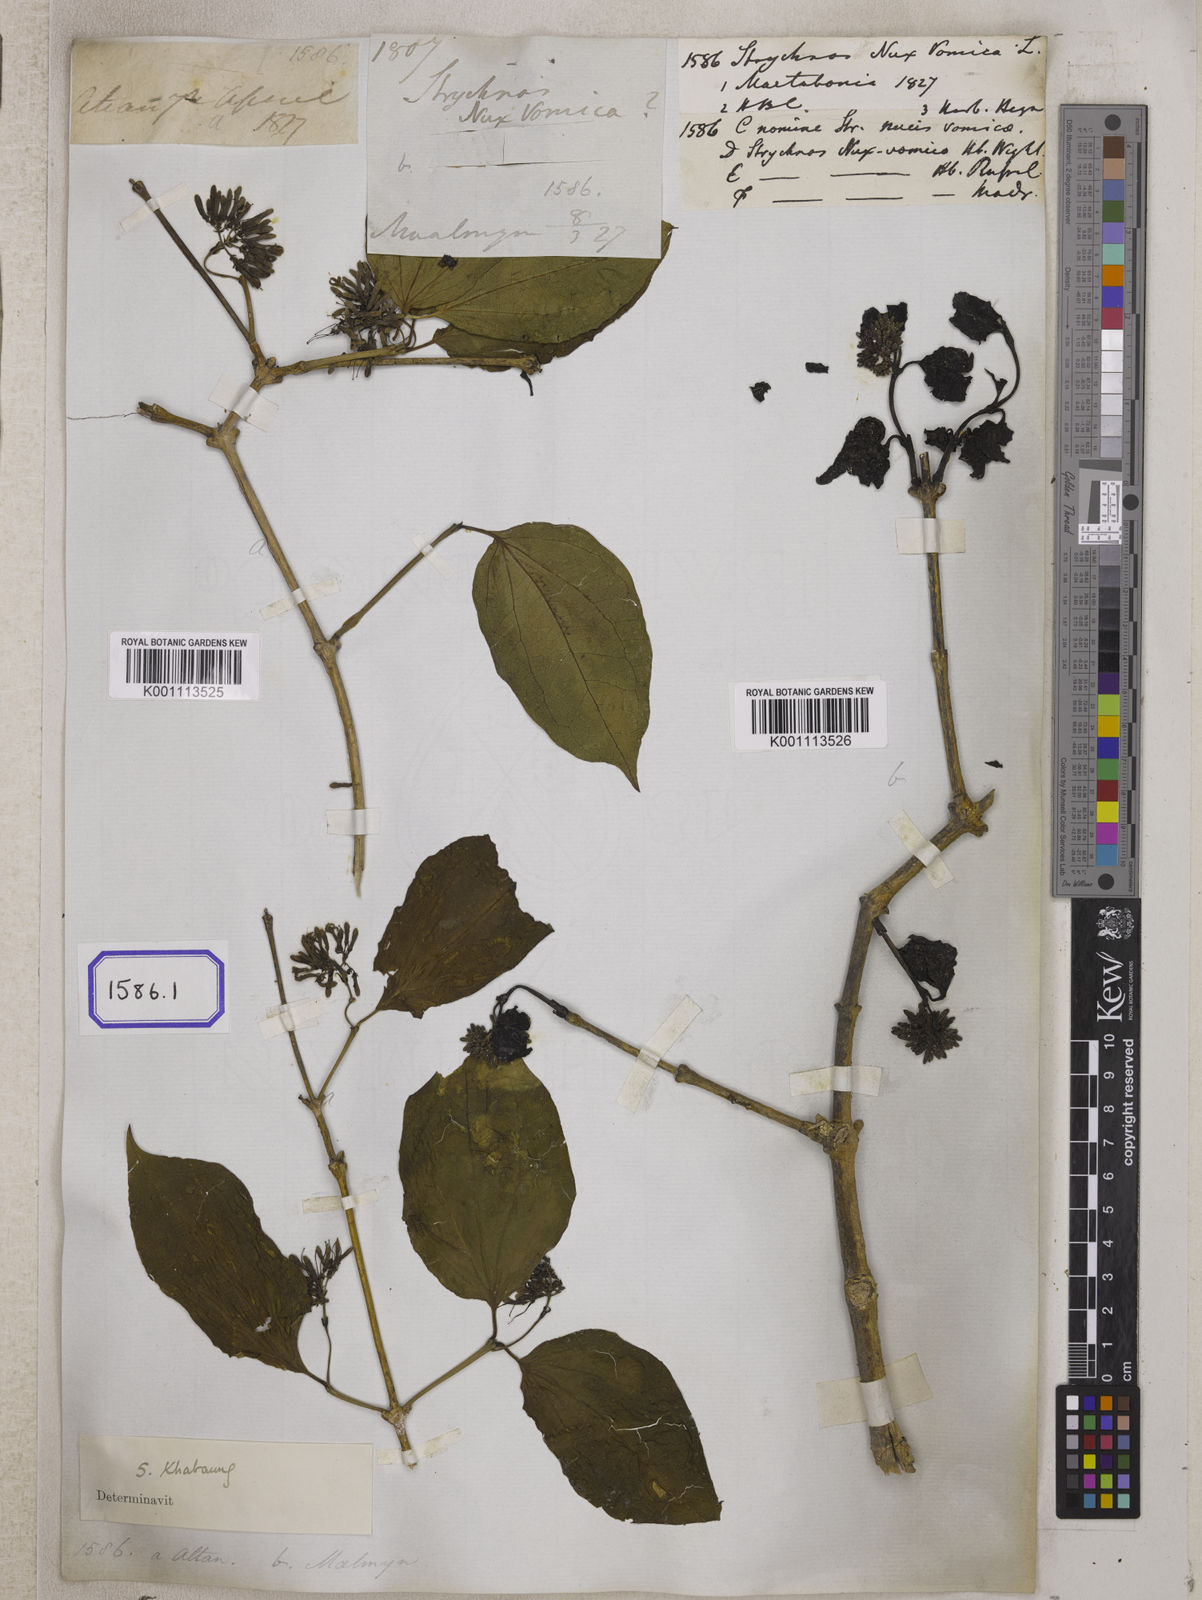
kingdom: Plantae
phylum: Tracheophyta
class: Magnoliopsida
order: Gentianales
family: Loganiaceae
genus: Strychnos
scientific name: Strychnos nux-vomica
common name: Strychninetree
